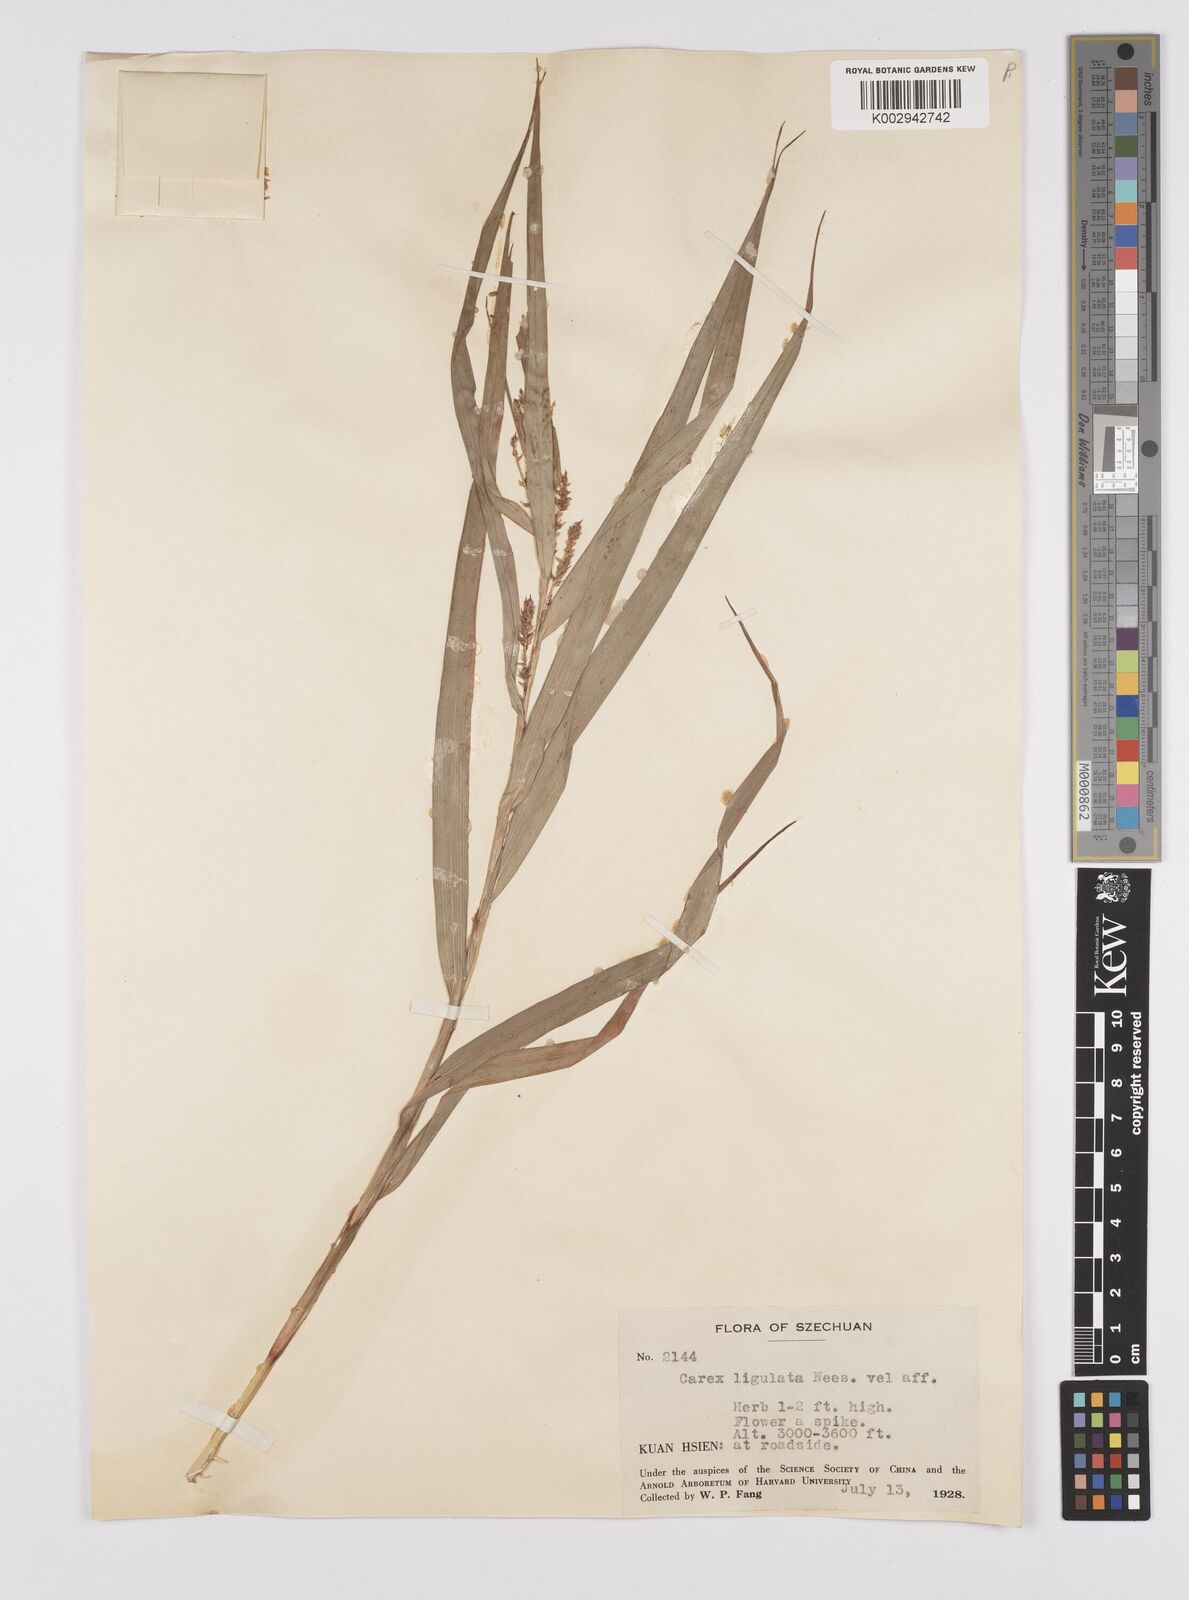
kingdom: Plantae
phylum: Tracheophyta
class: Liliopsida
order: Poales
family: Cyperaceae
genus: Carex
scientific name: Carex ligulata
